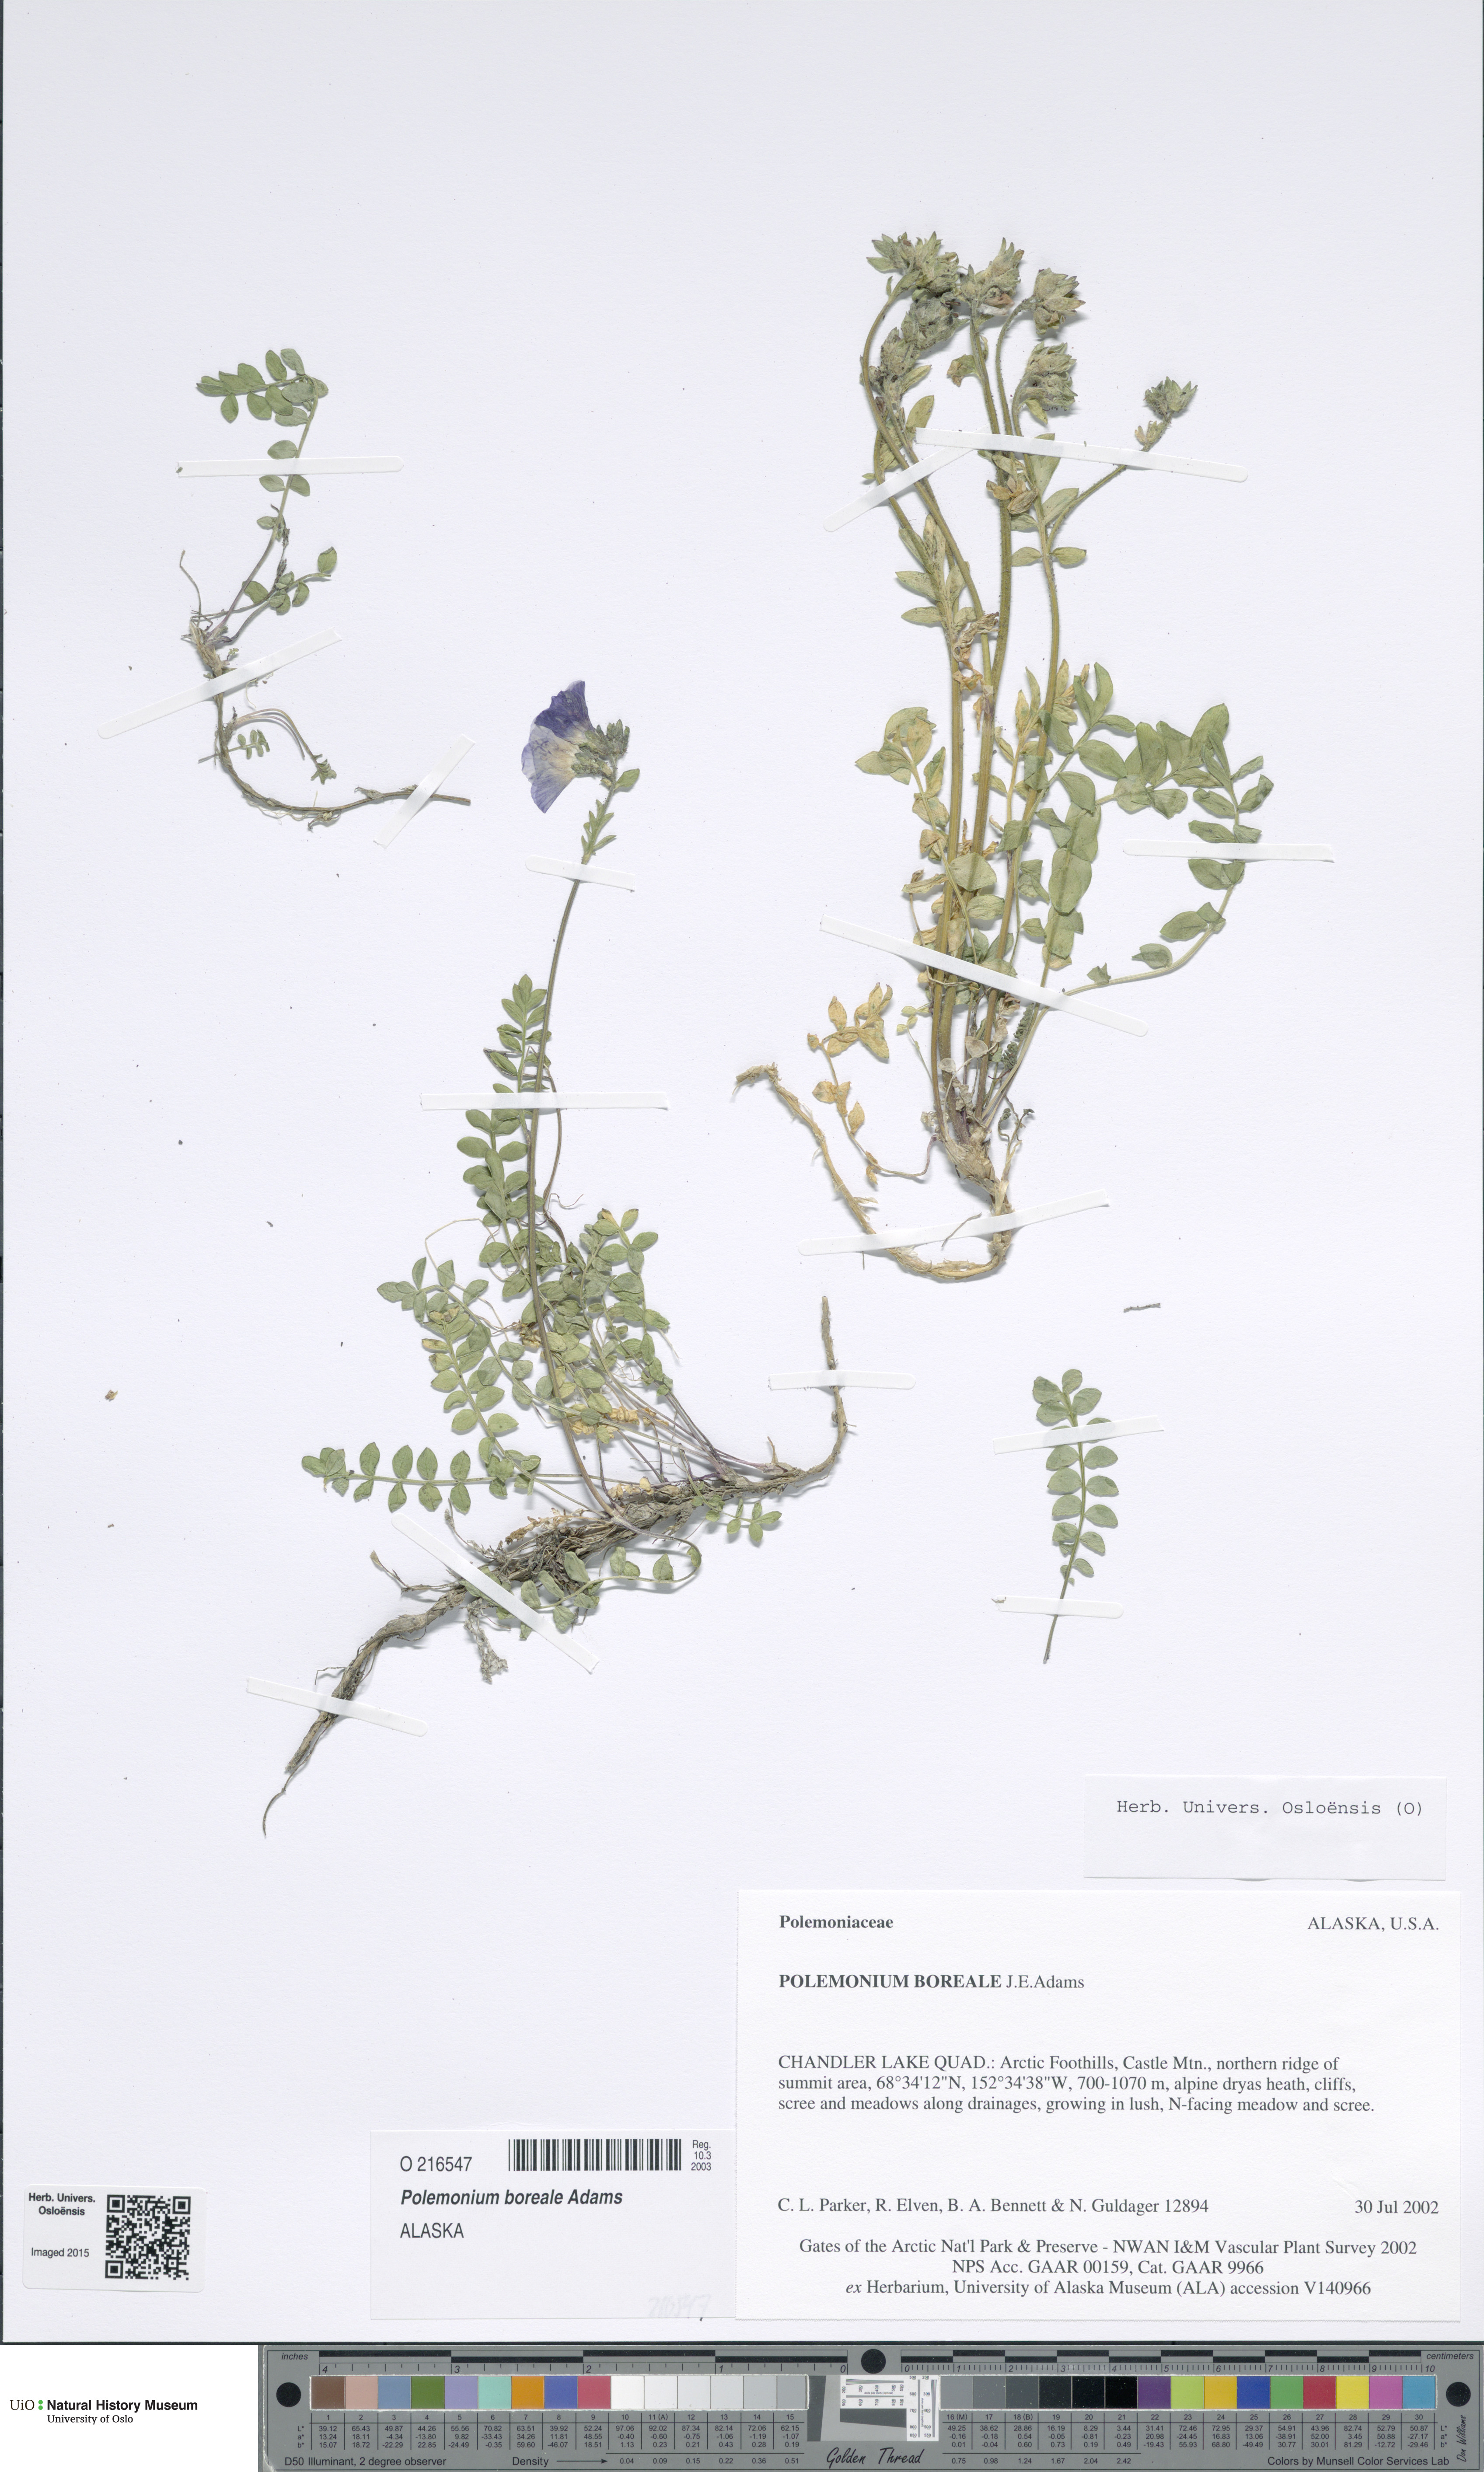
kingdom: Plantae
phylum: Tracheophyta
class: Magnoliopsida
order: Ericales
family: Polemoniaceae
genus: Polemonium
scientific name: Polemonium boreale
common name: Boreal jacob's-ladder
